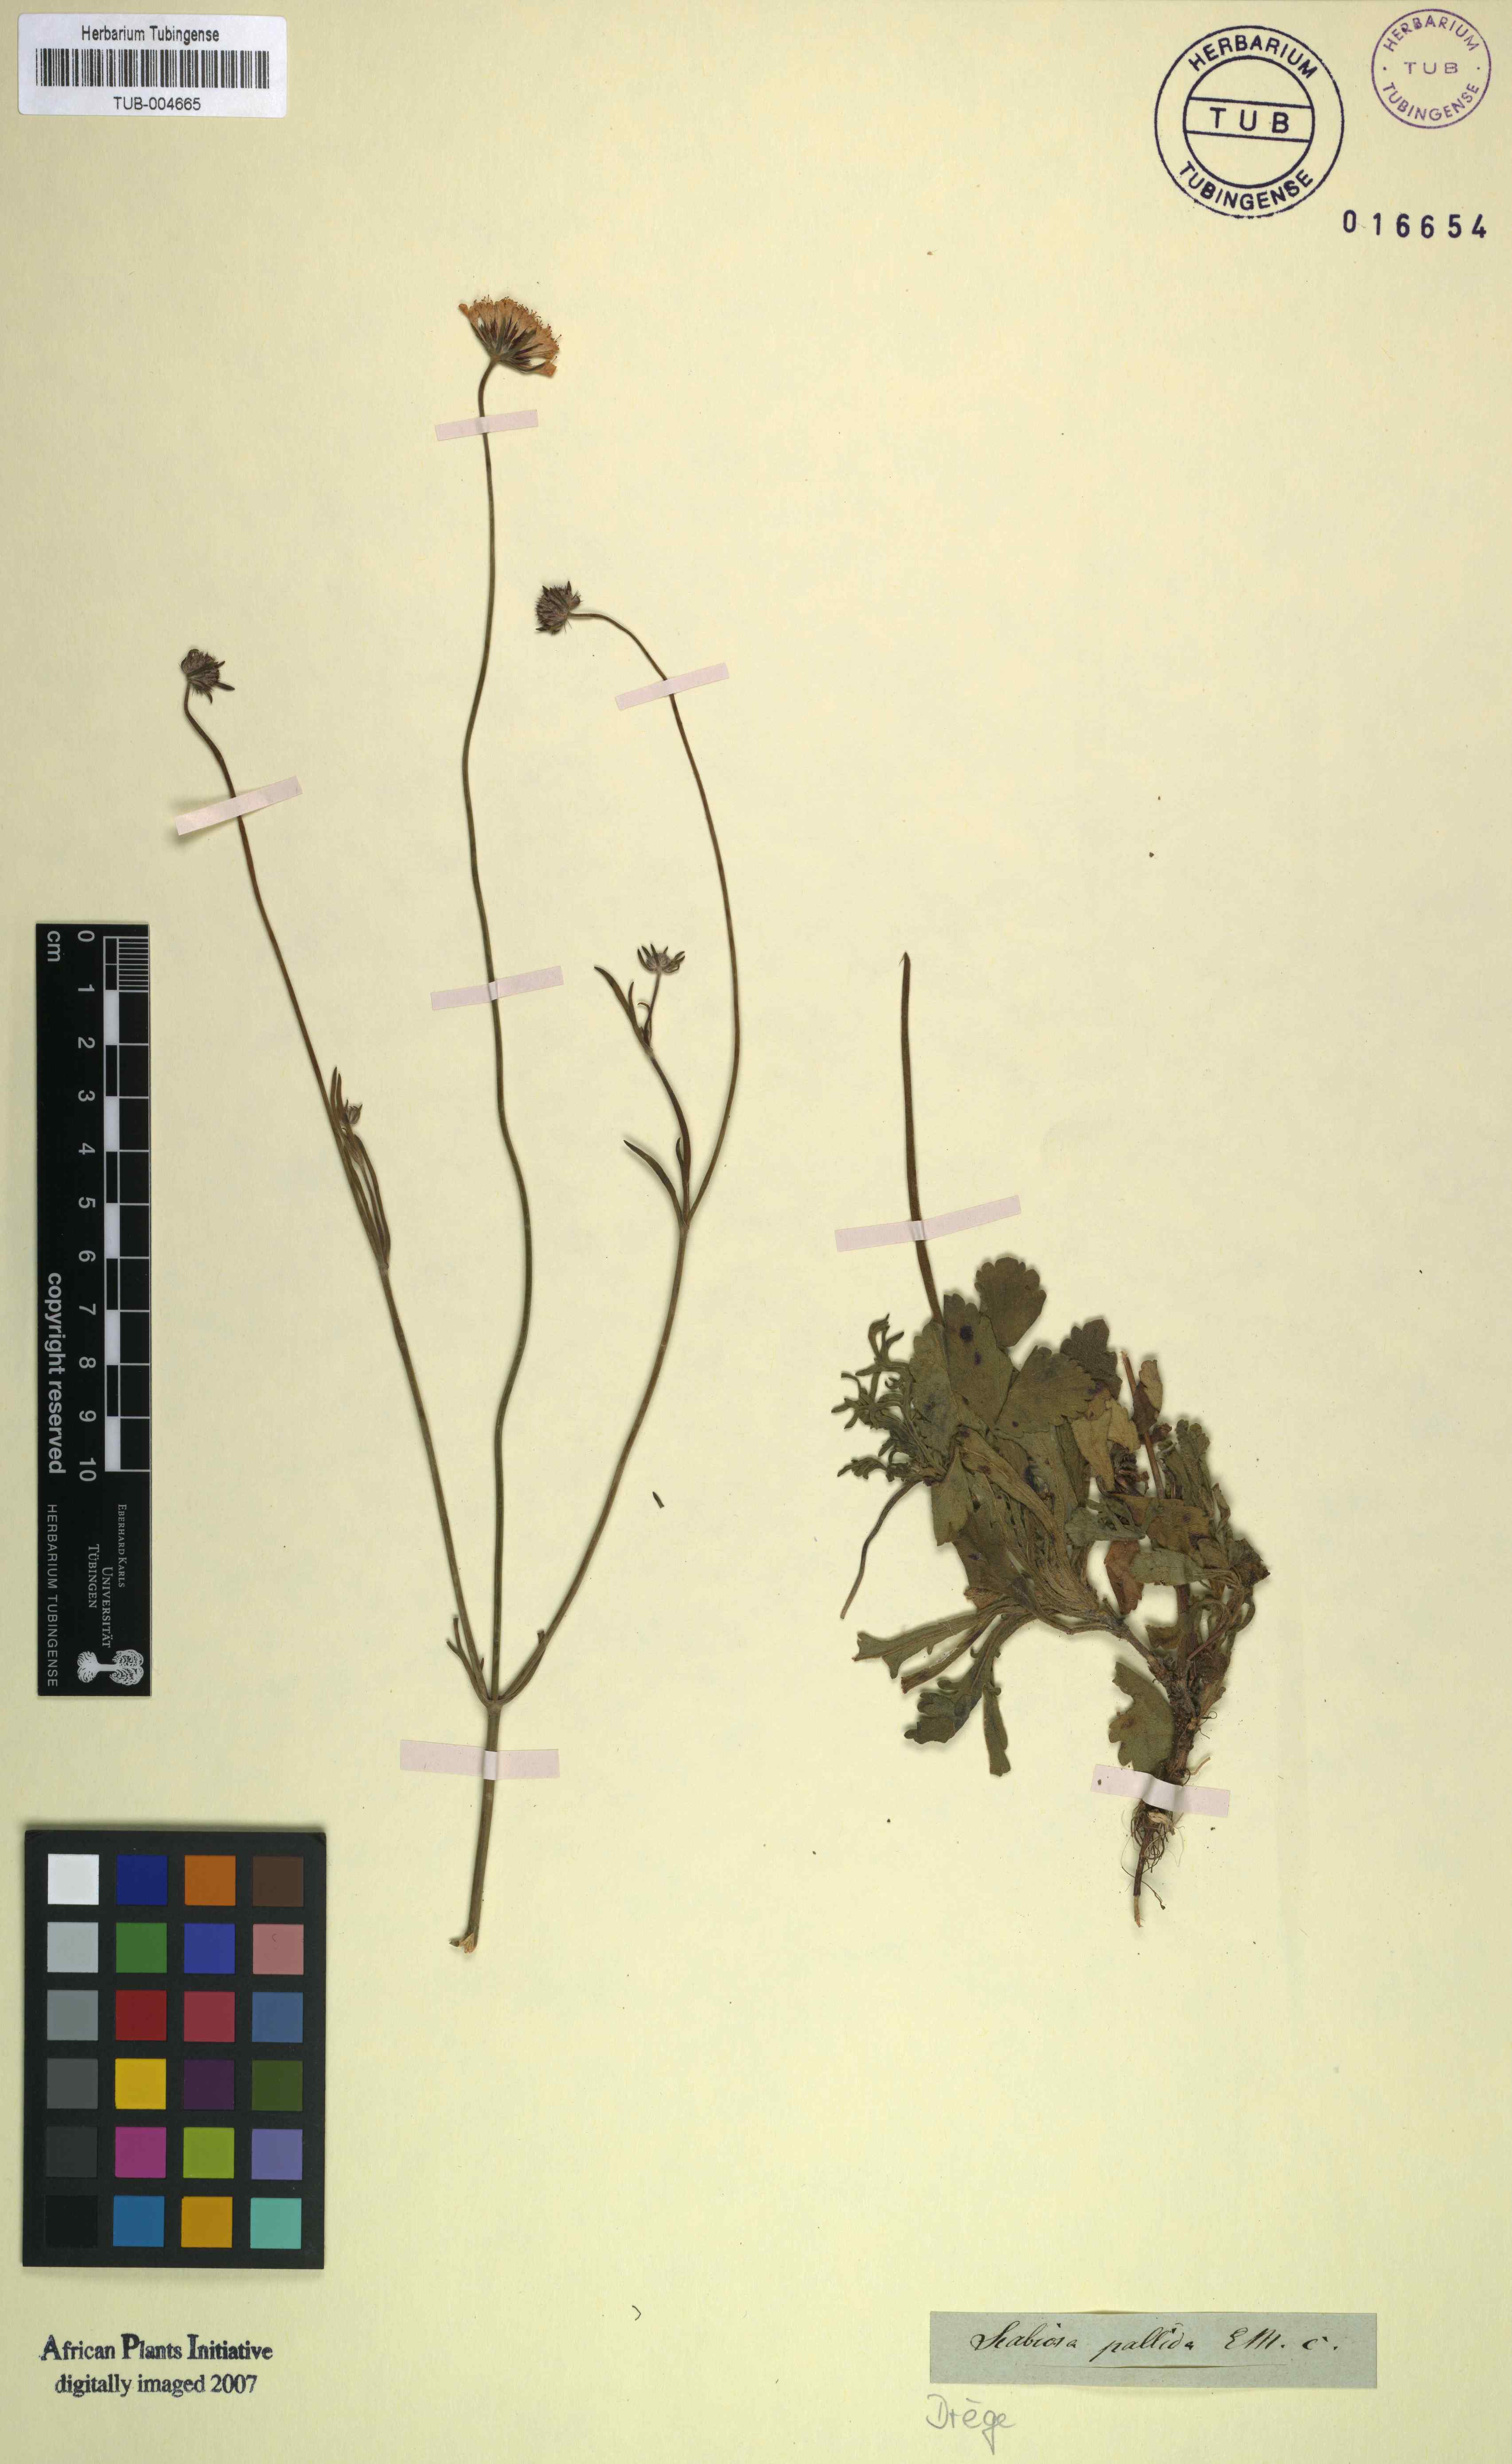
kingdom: Plantae
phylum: Tracheophyta
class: Magnoliopsida
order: Dipsacales
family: Caprifoliaceae
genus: Scabiosa
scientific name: Scabiosa columbaria
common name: Small scabious
